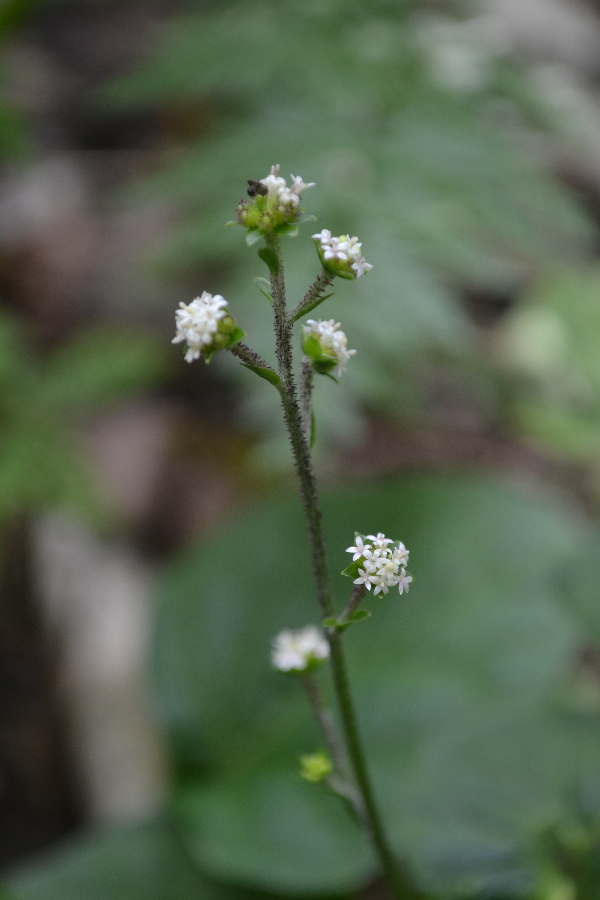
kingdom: Plantae
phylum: Tracheophyta
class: Magnoliopsida
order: Asterales
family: Asteraceae
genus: Adenocaulon
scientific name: Adenocaulon himalaicum
